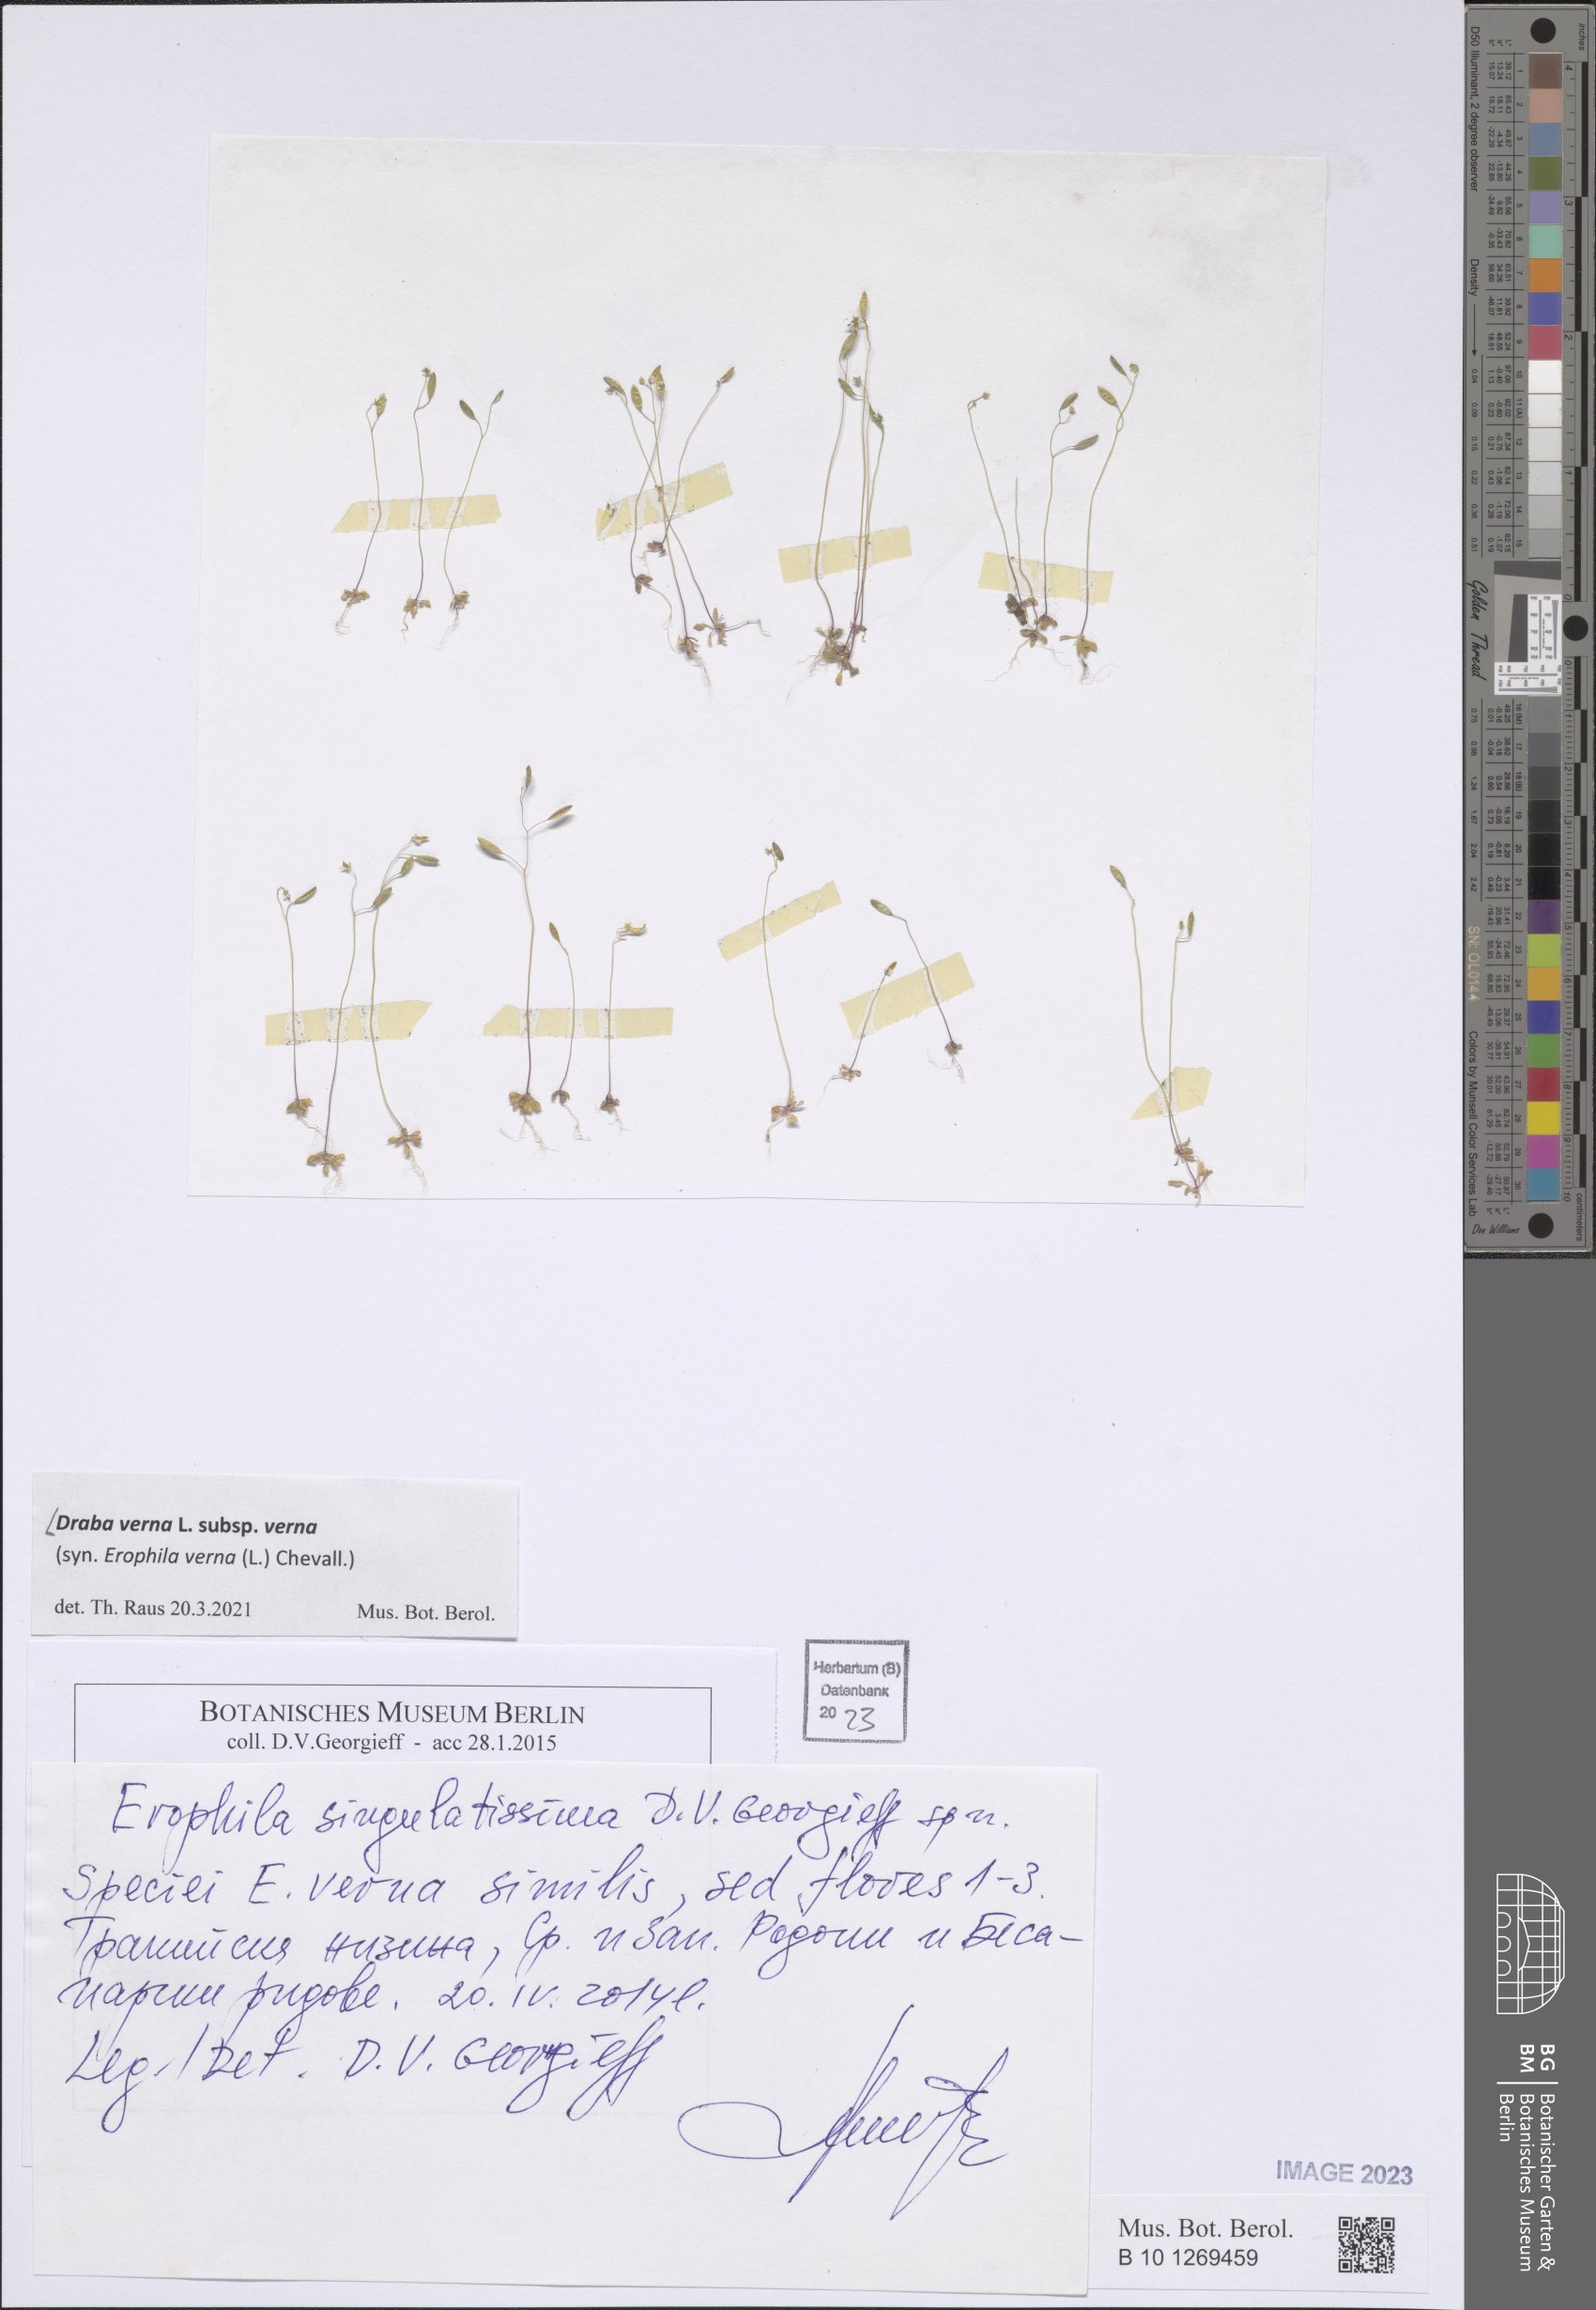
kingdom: Plantae
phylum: Tracheophyta
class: Magnoliopsida
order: Brassicales
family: Brassicaceae
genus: Draba
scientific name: Draba verna
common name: Spring draba
